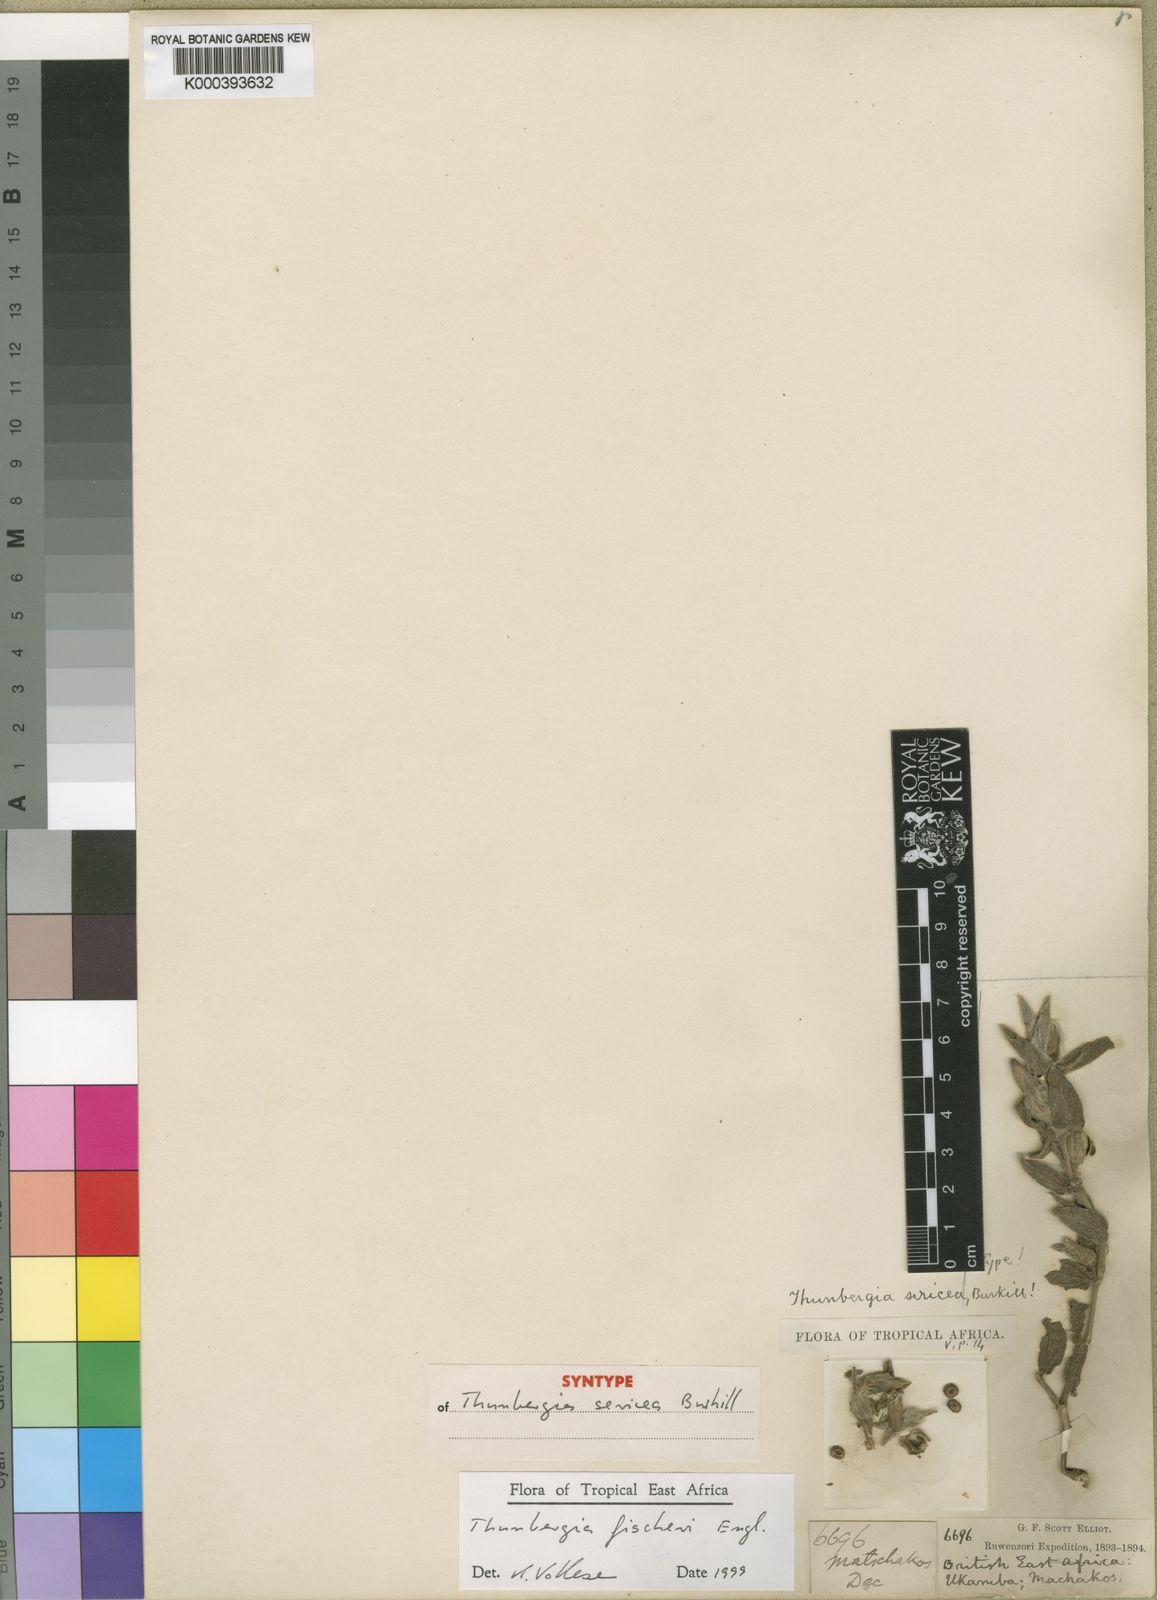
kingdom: Plantae
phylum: Tracheophyta
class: Magnoliopsida
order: Lamiales
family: Acanthaceae
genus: Thunbergia
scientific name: Thunbergia fischeri
